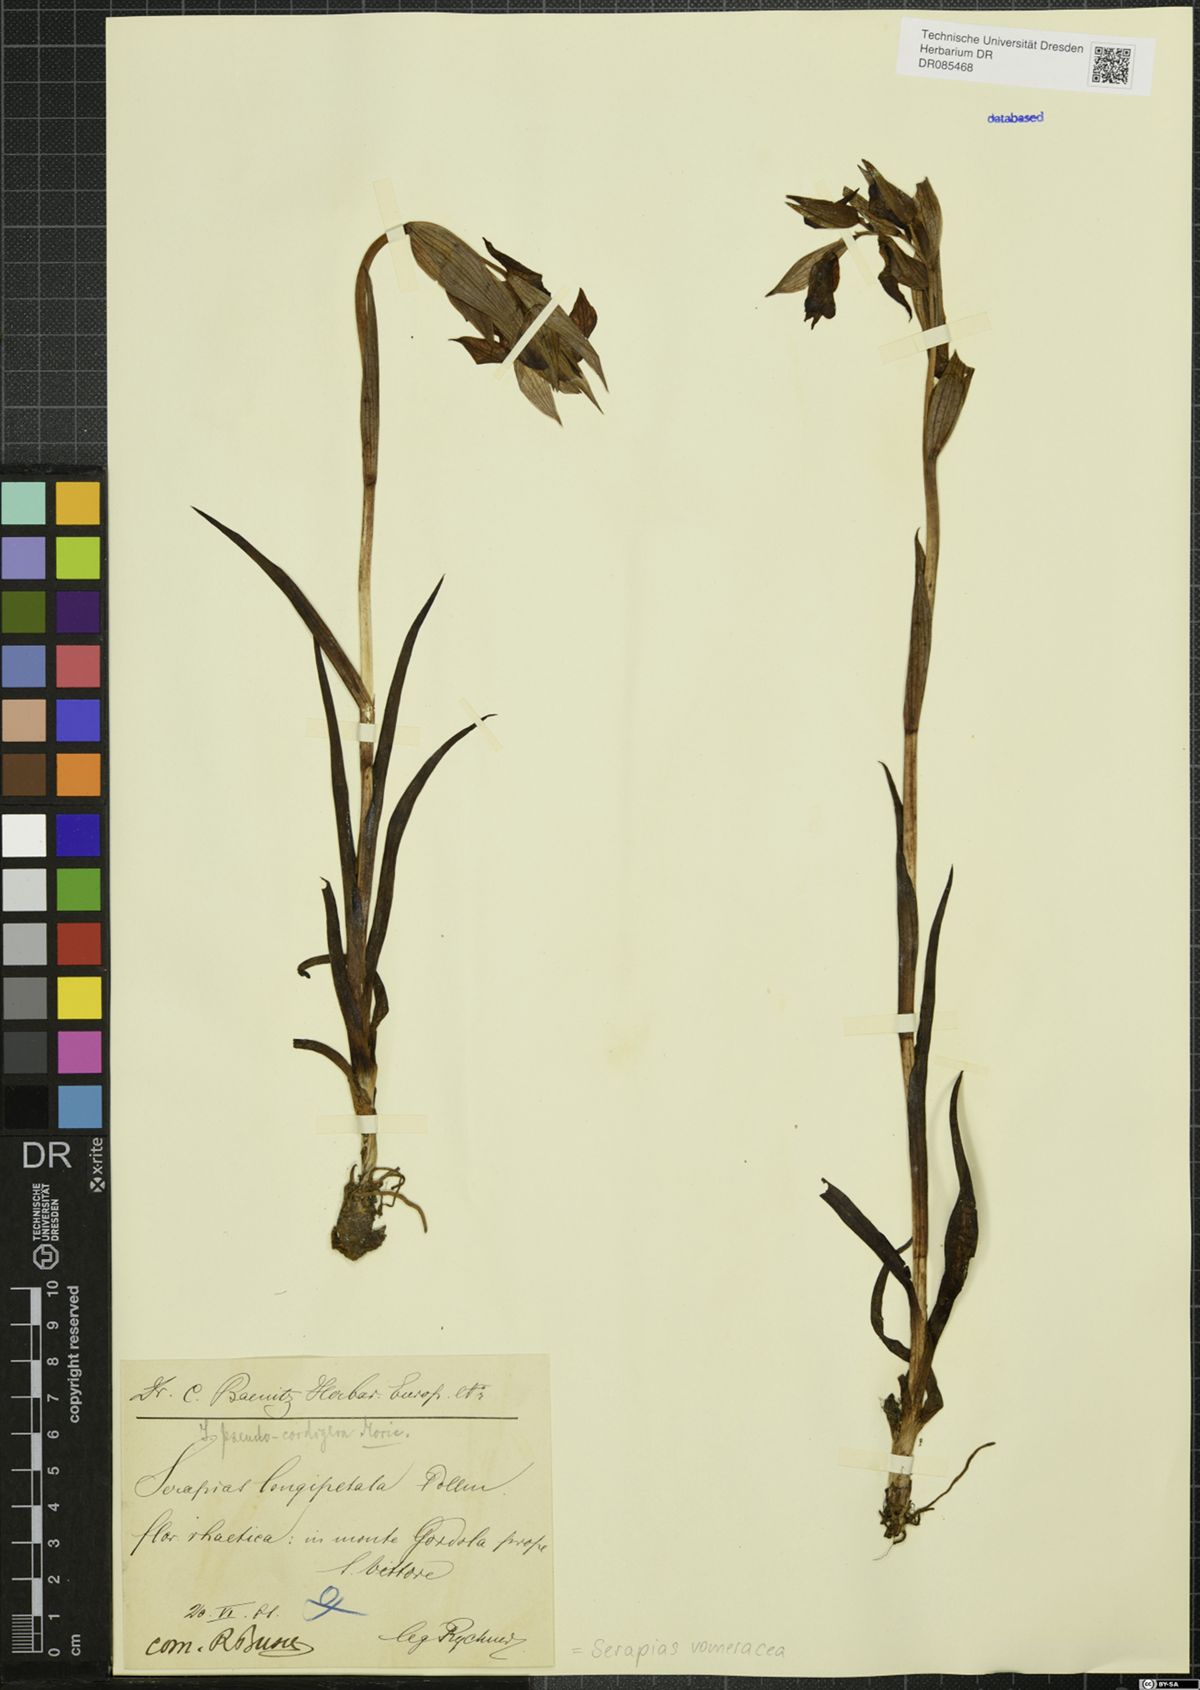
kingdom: Plantae
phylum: Tracheophyta
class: Liliopsida
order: Asparagales
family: Orchidaceae
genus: Serapias
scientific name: Serapias vomeracea
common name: Long-lipped tongue-orchid
